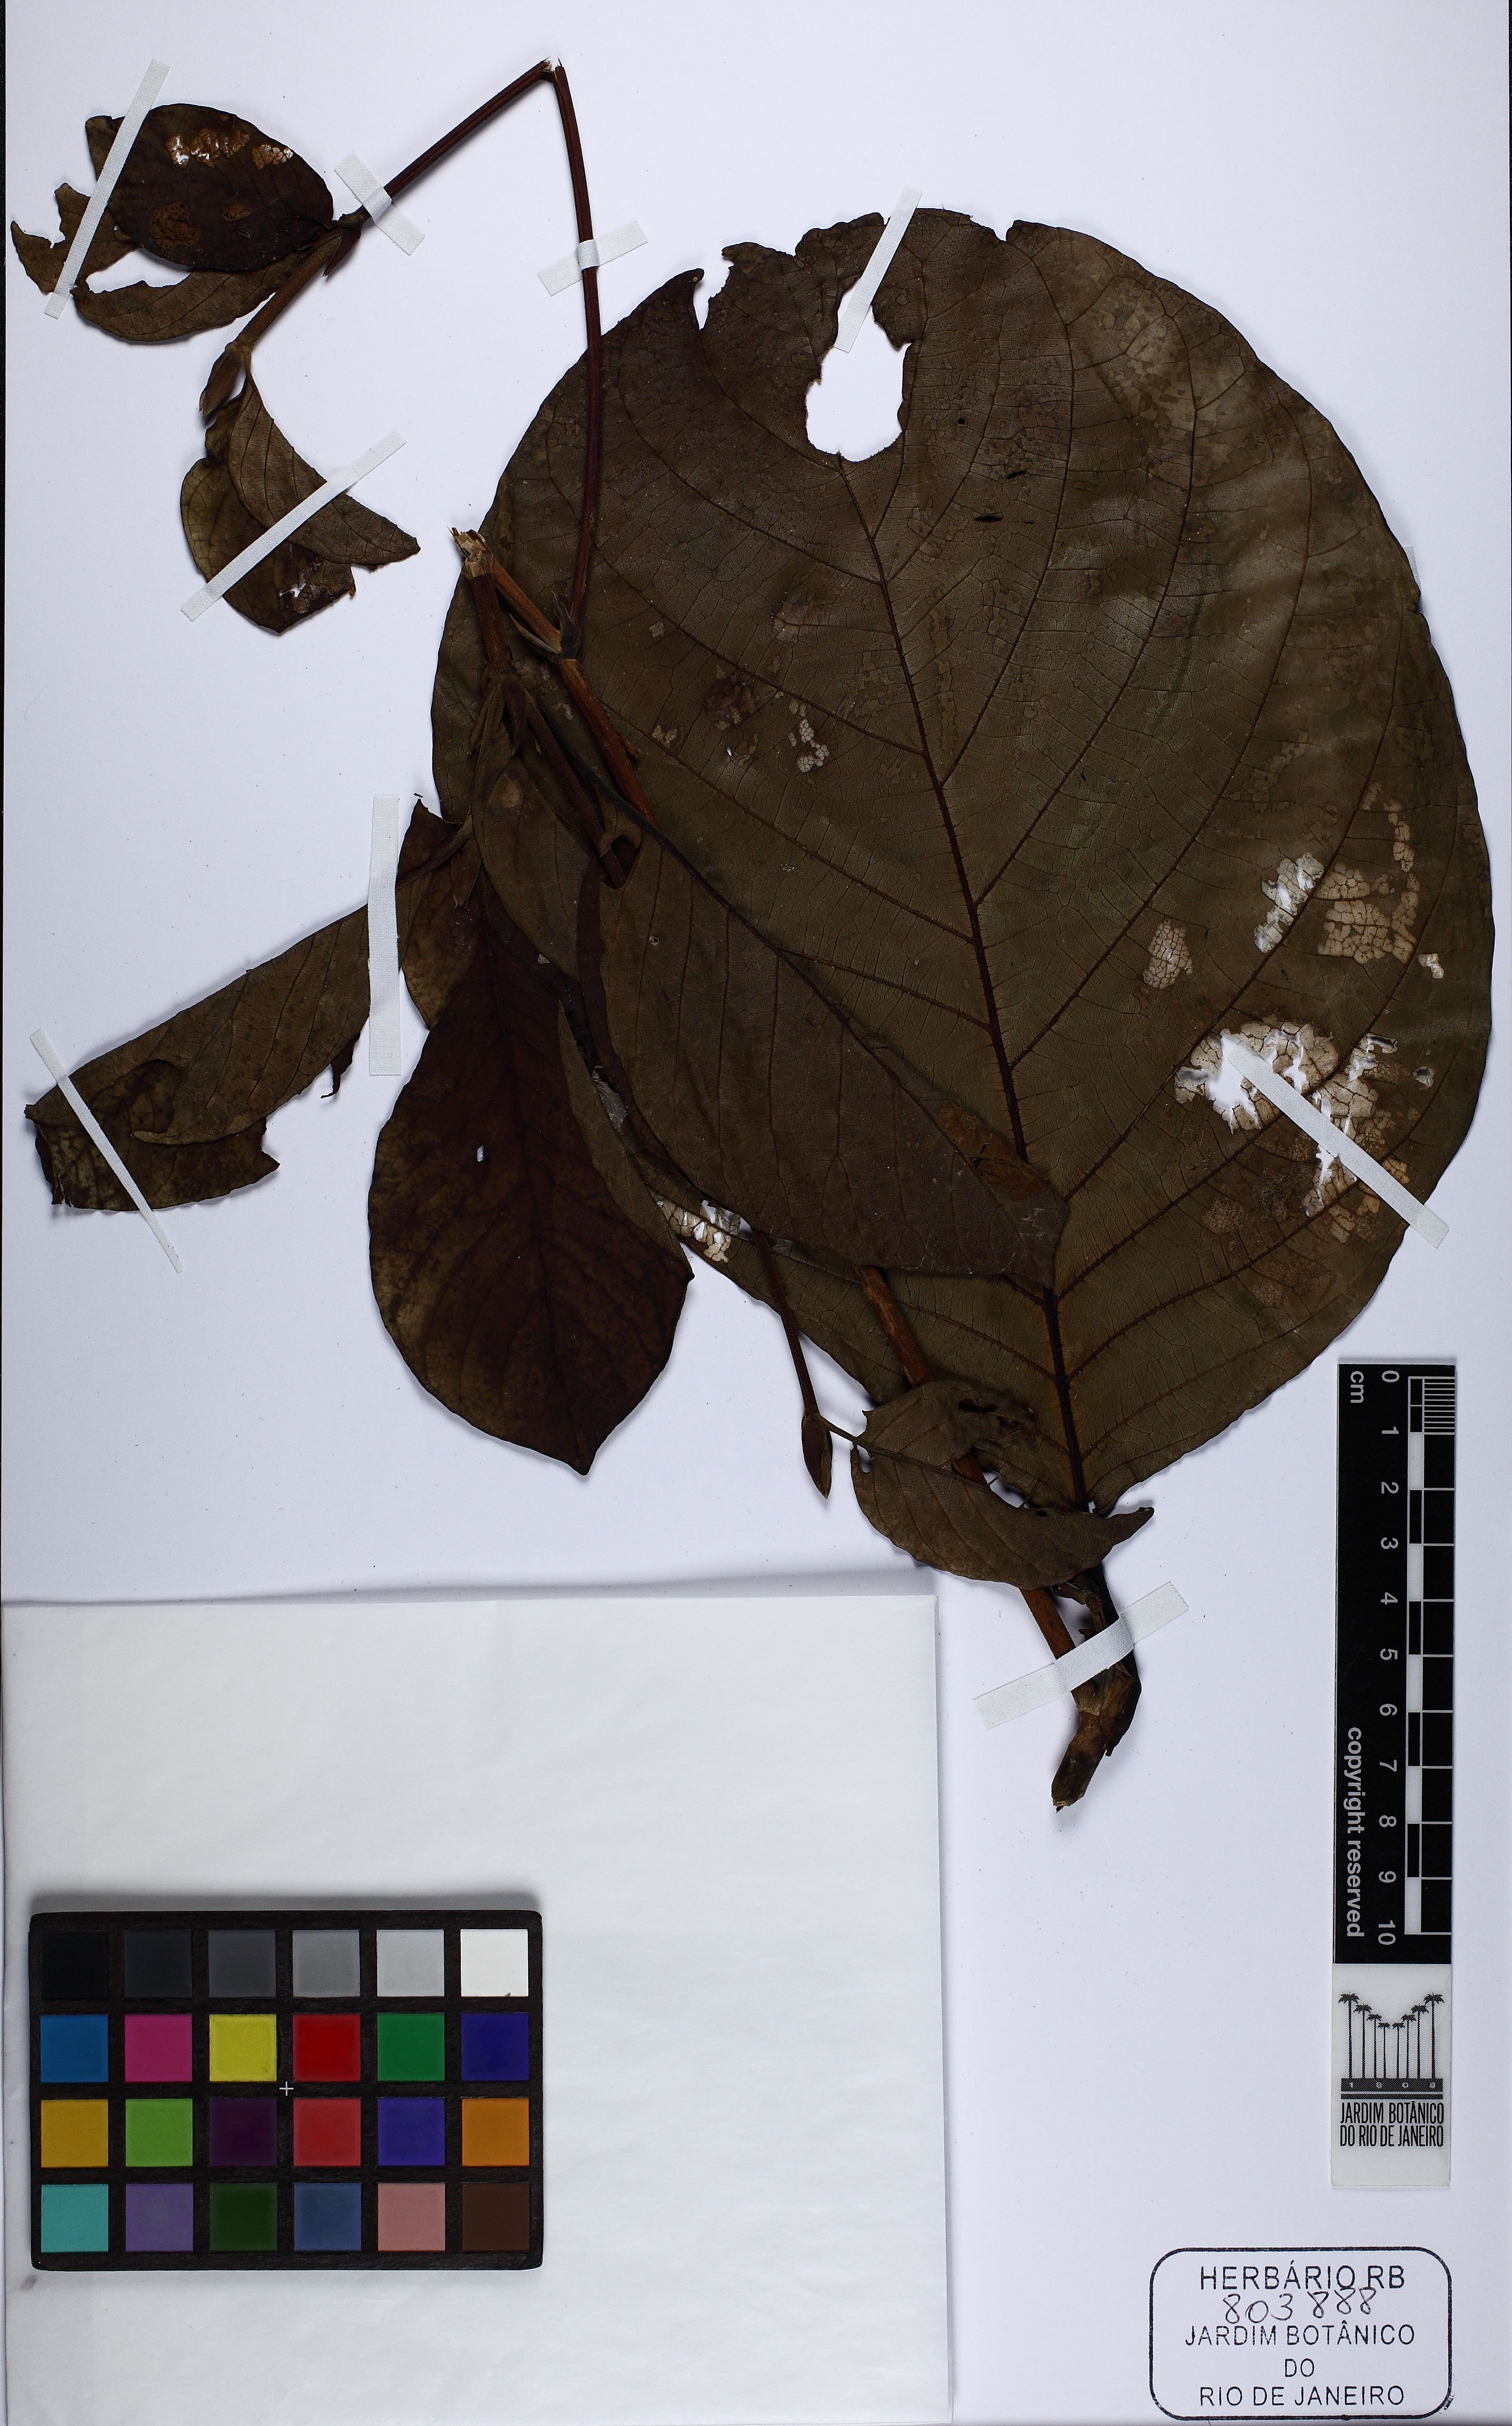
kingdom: Plantae
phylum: Tracheophyta
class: Magnoliopsida
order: Gentianales
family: Rubiaceae
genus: Dialypetalanthus
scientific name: Dialypetalanthus fuscescens
